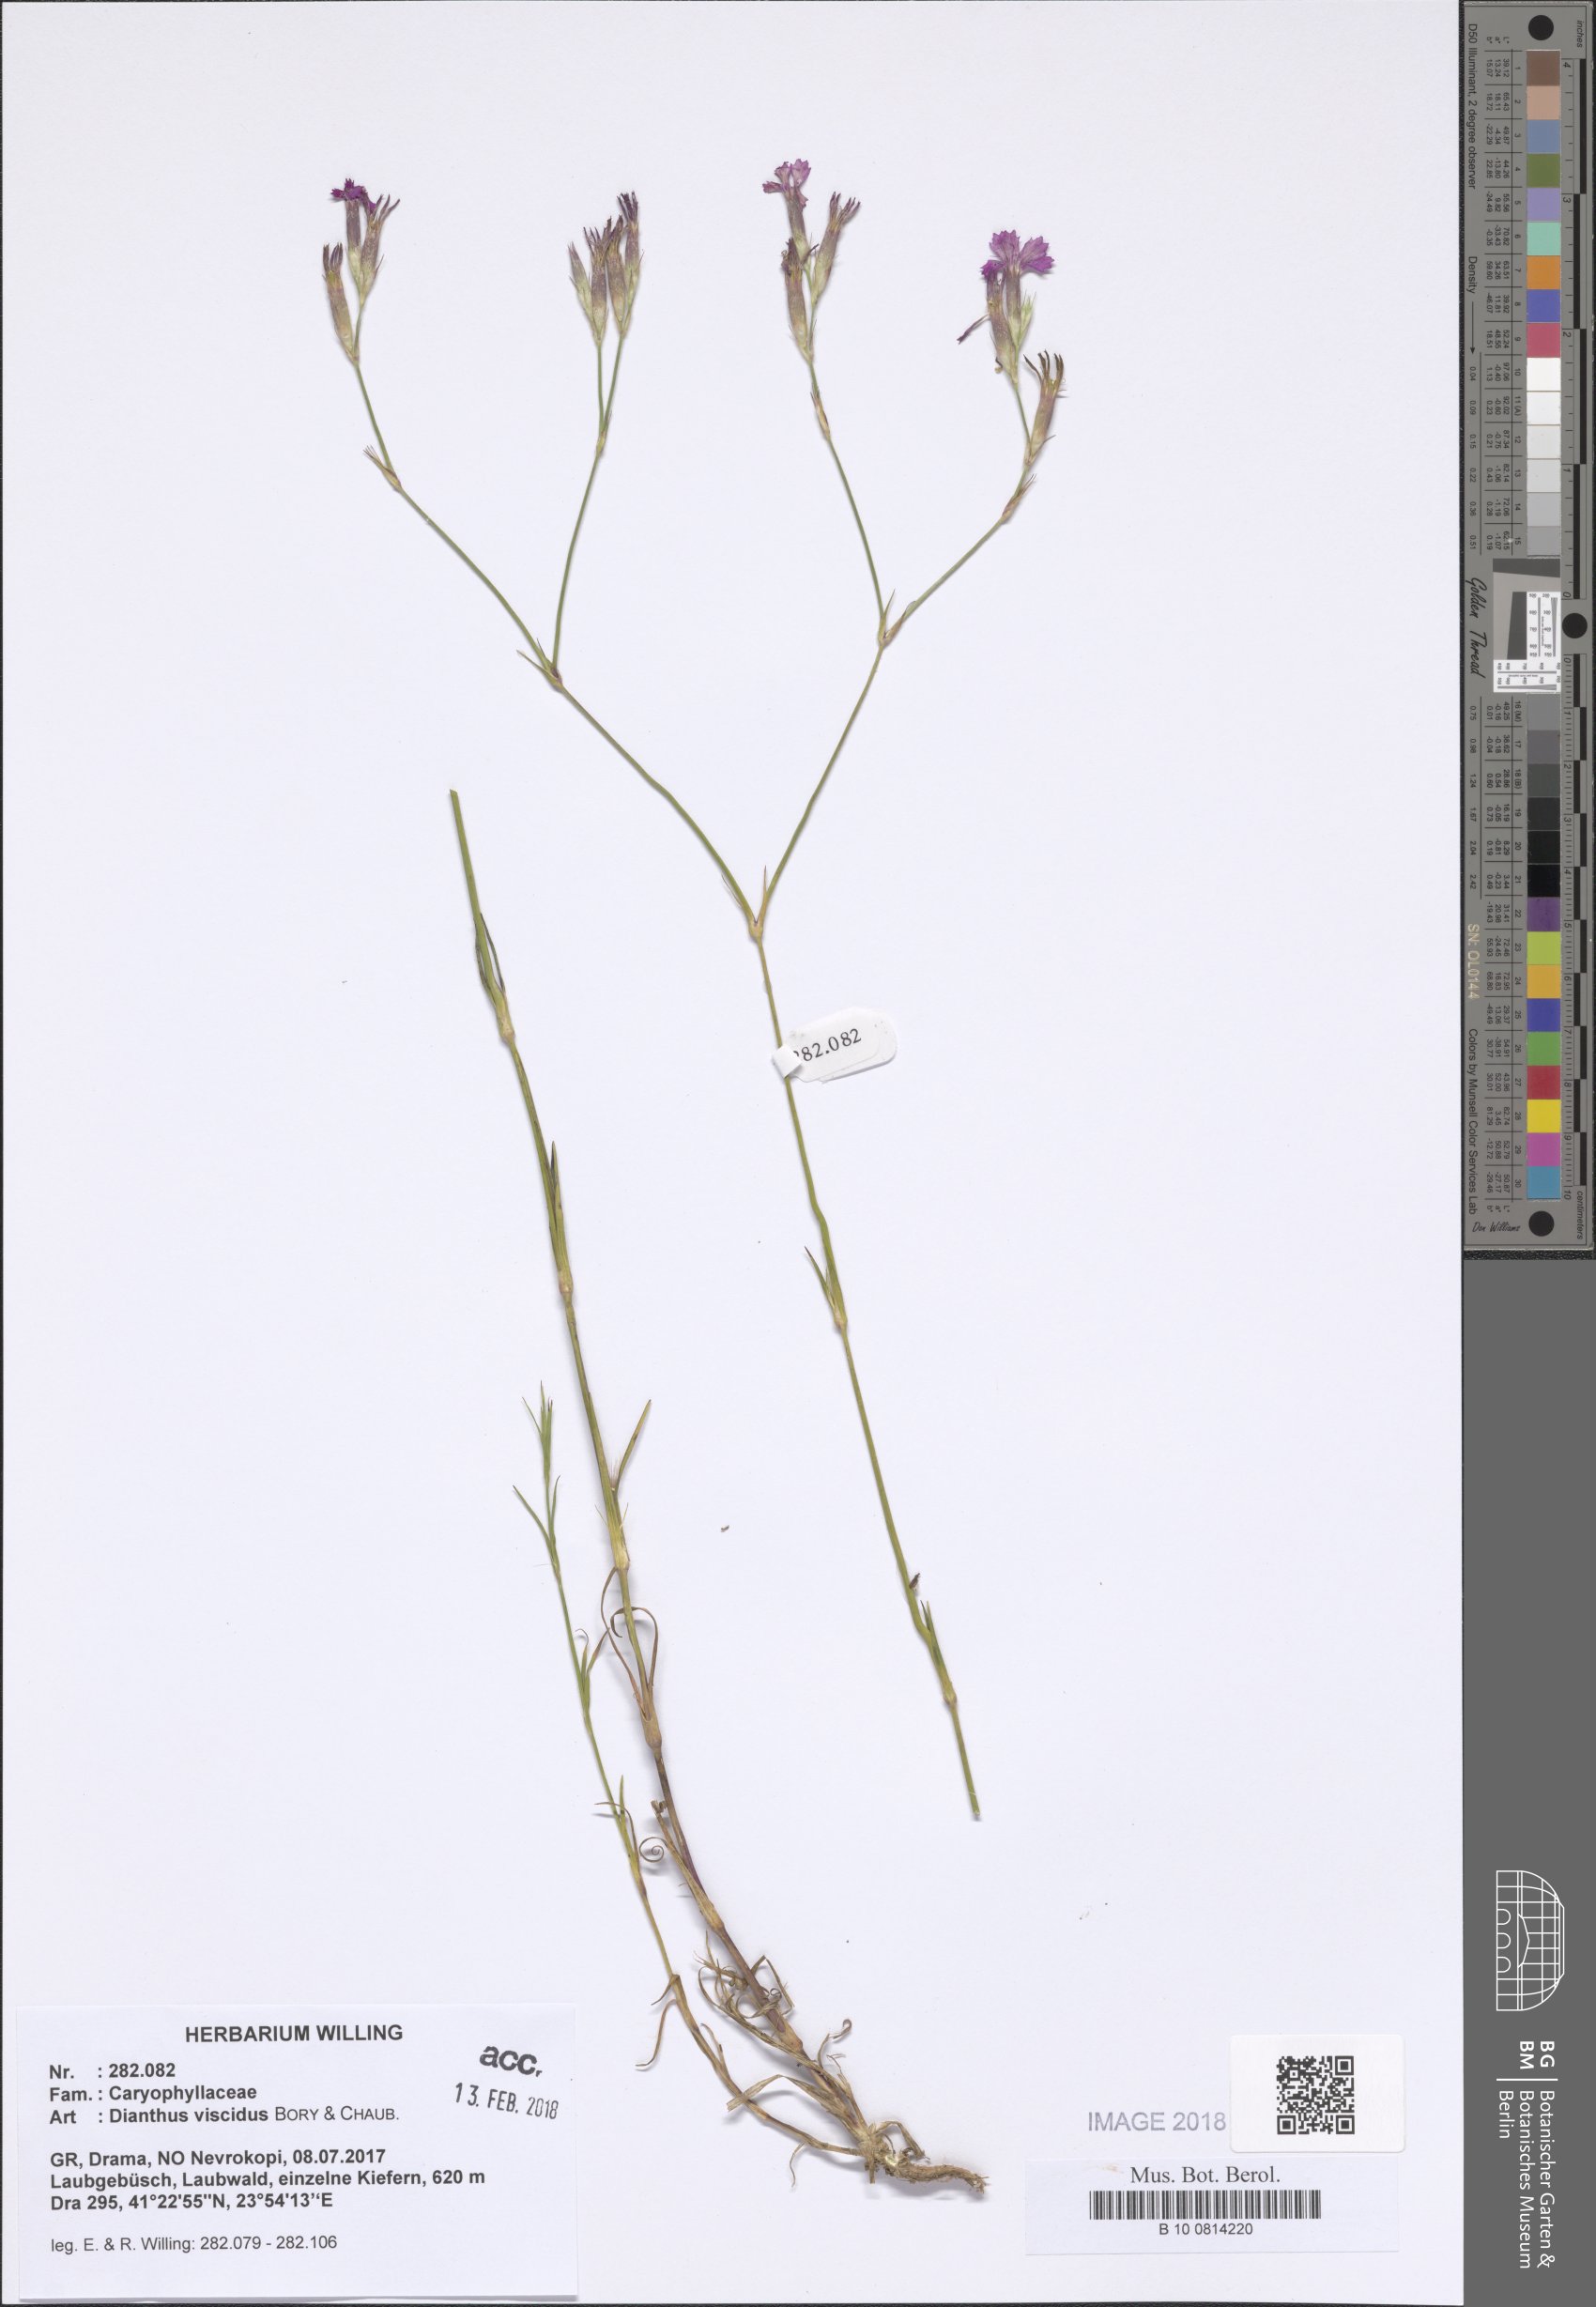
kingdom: Plantae
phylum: Tracheophyta
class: Magnoliopsida
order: Caryophyllales
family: Caryophyllaceae
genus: Dianthus
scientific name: Dianthus viscidus
